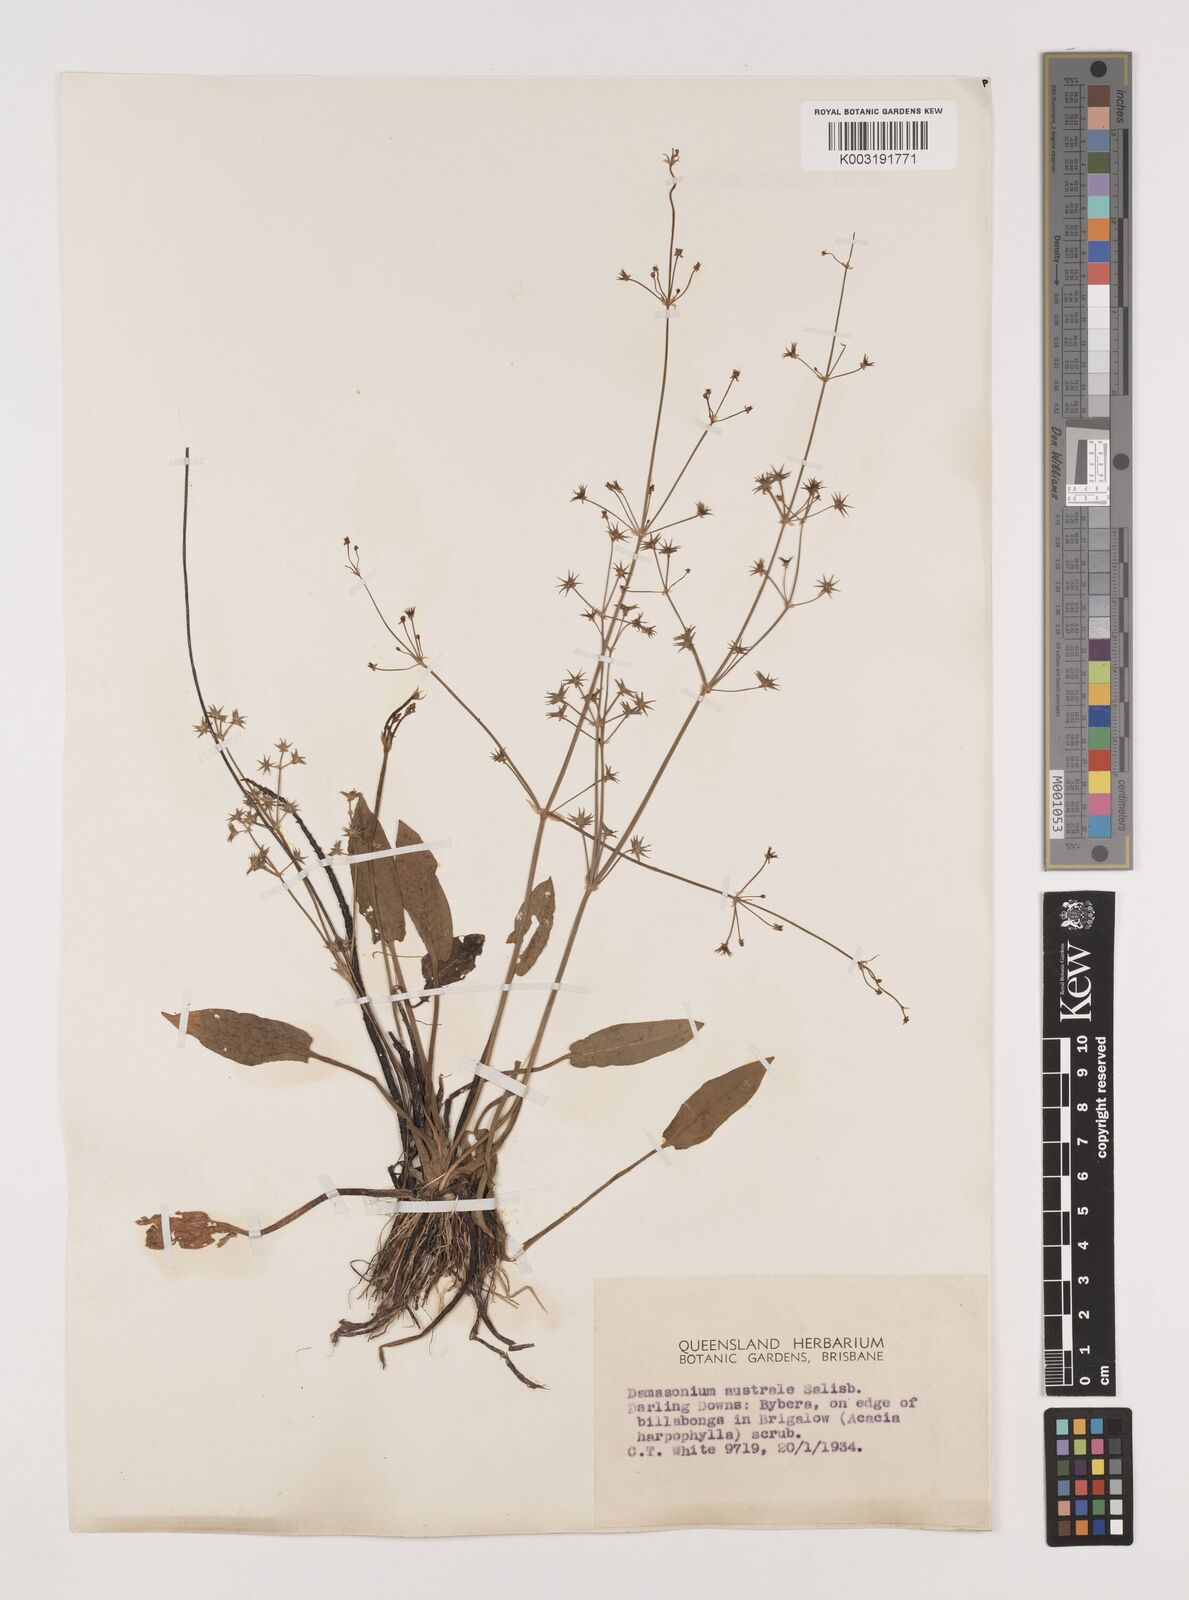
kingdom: Plantae
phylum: Tracheophyta
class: Liliopsida
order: Alismatales
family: Alismataceae
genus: Damasonium
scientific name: Damasonium minus
